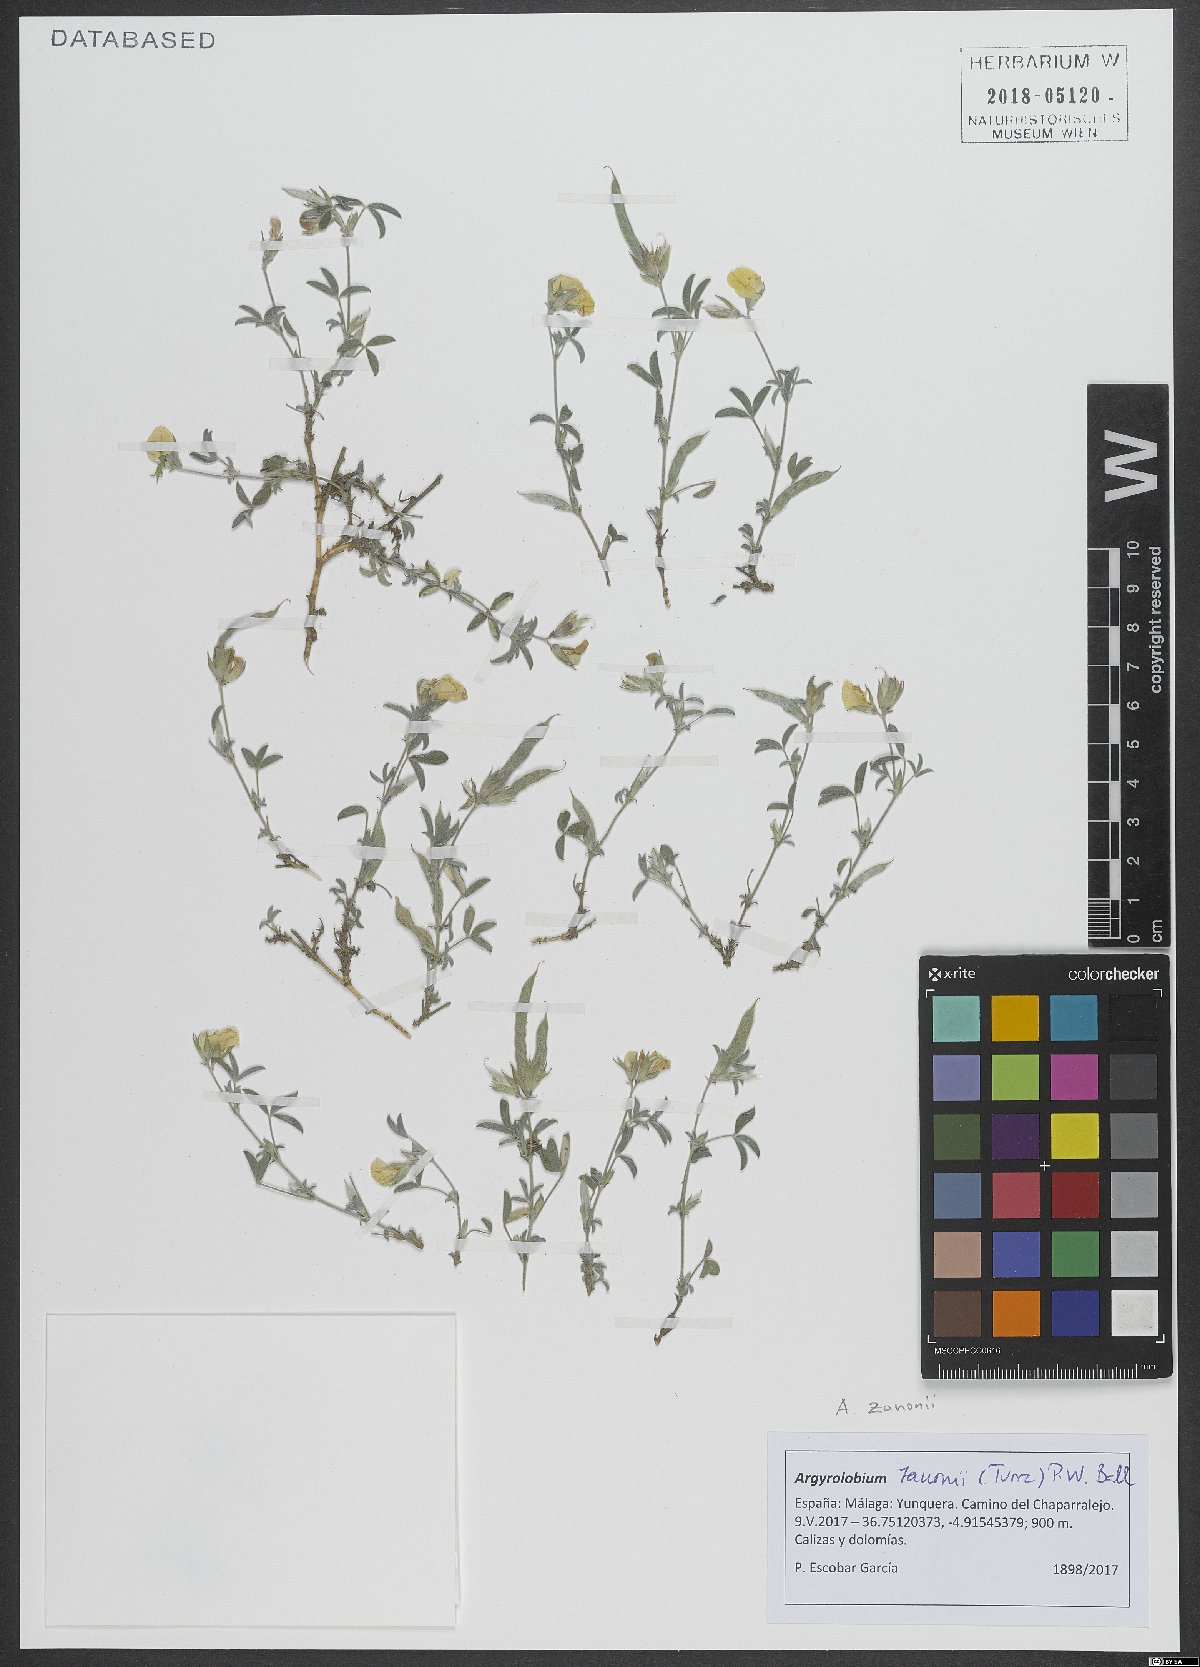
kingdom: Plantae
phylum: Tracheophyta
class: Magnoliopsida
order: Fabales
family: Fabaceae
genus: Argyrolobium
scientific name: Argyrolobium zanonii
